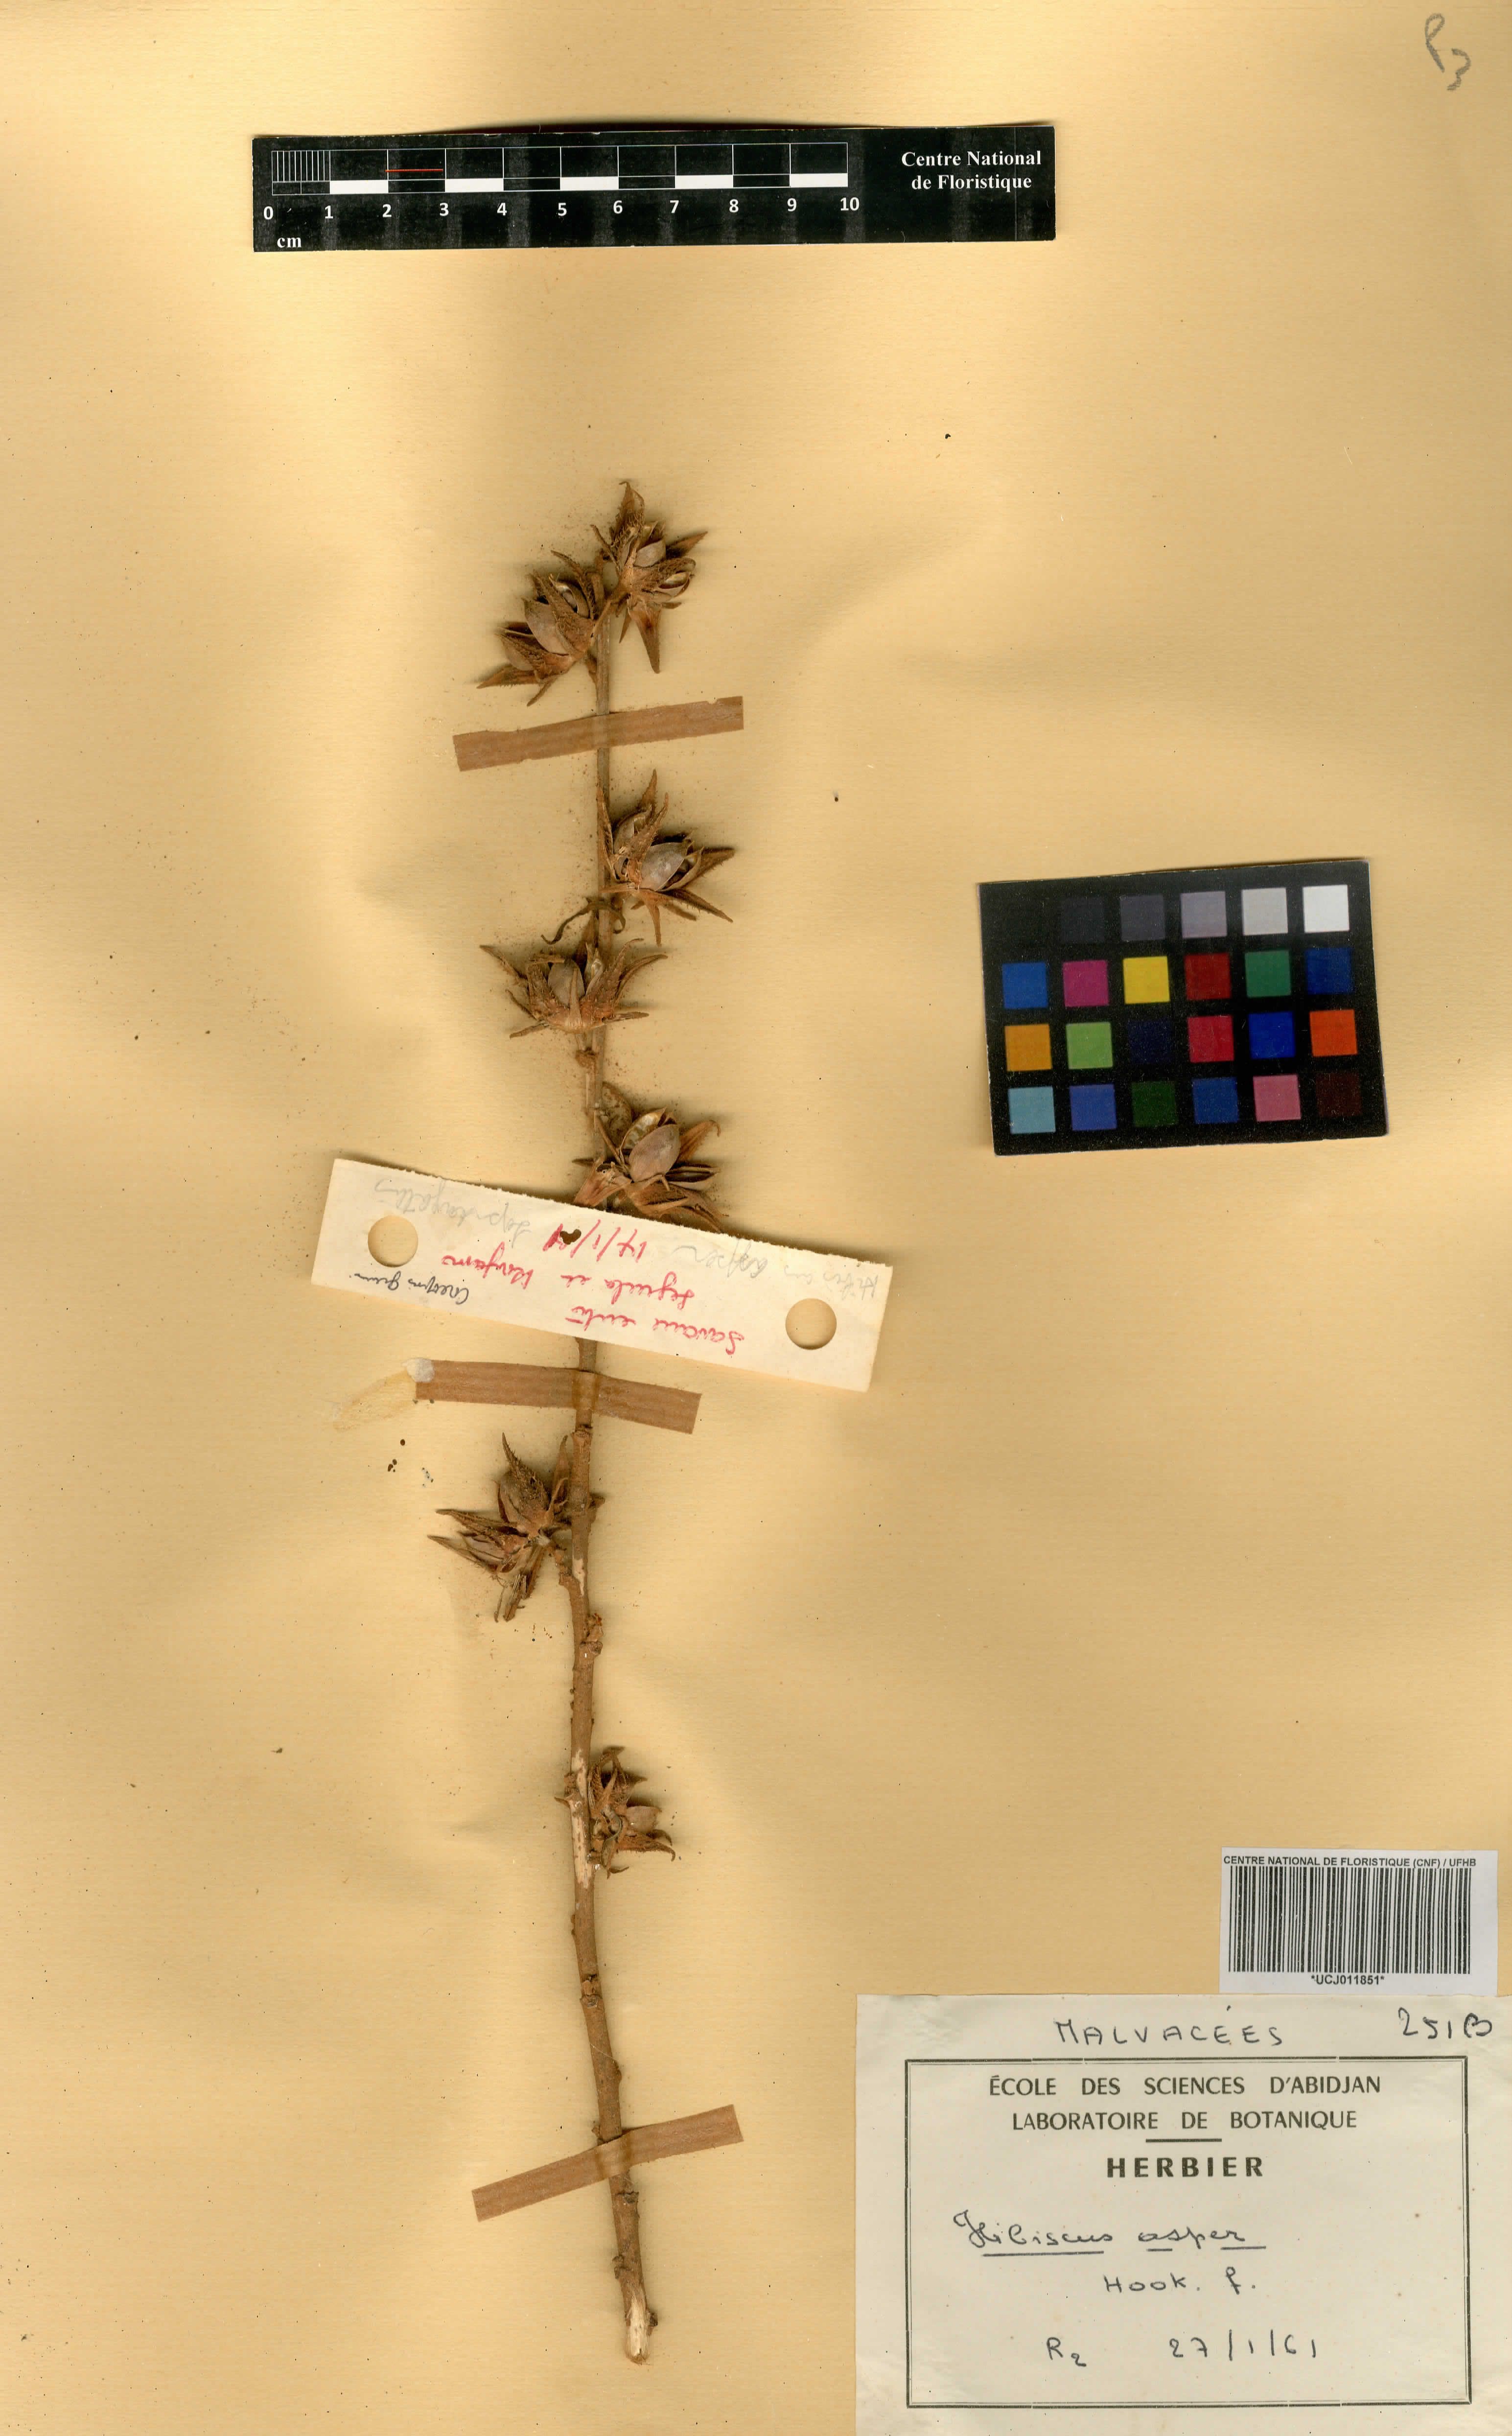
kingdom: Plantae
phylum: Tracheophyta
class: Magnoliopsida
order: Malvales
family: Malvaceae
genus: Hibiscus
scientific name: Hibiscus cannabinus
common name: Brown indianhemp
